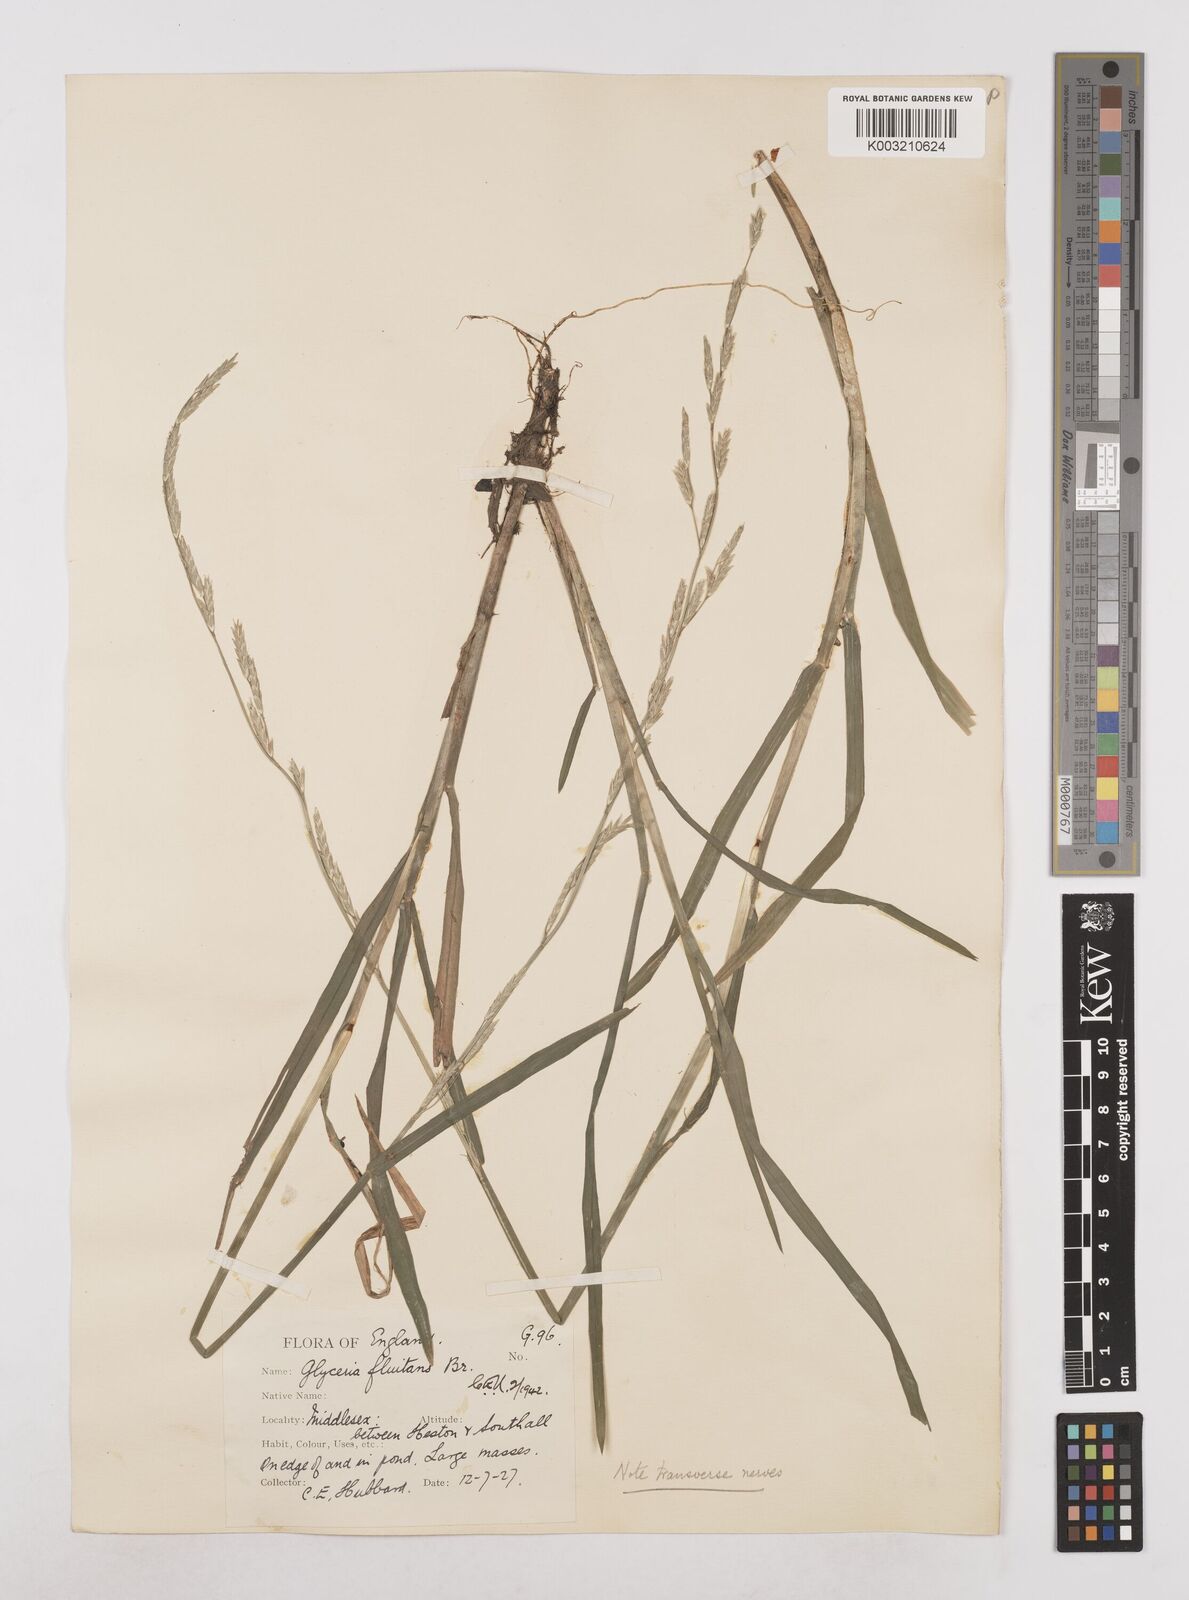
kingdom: Plantae
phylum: Tracheophyta
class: Liliopsida
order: Poales
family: Poaceae
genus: Glyceria
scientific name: Glyceria fluitans
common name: Floating sweet-grass
